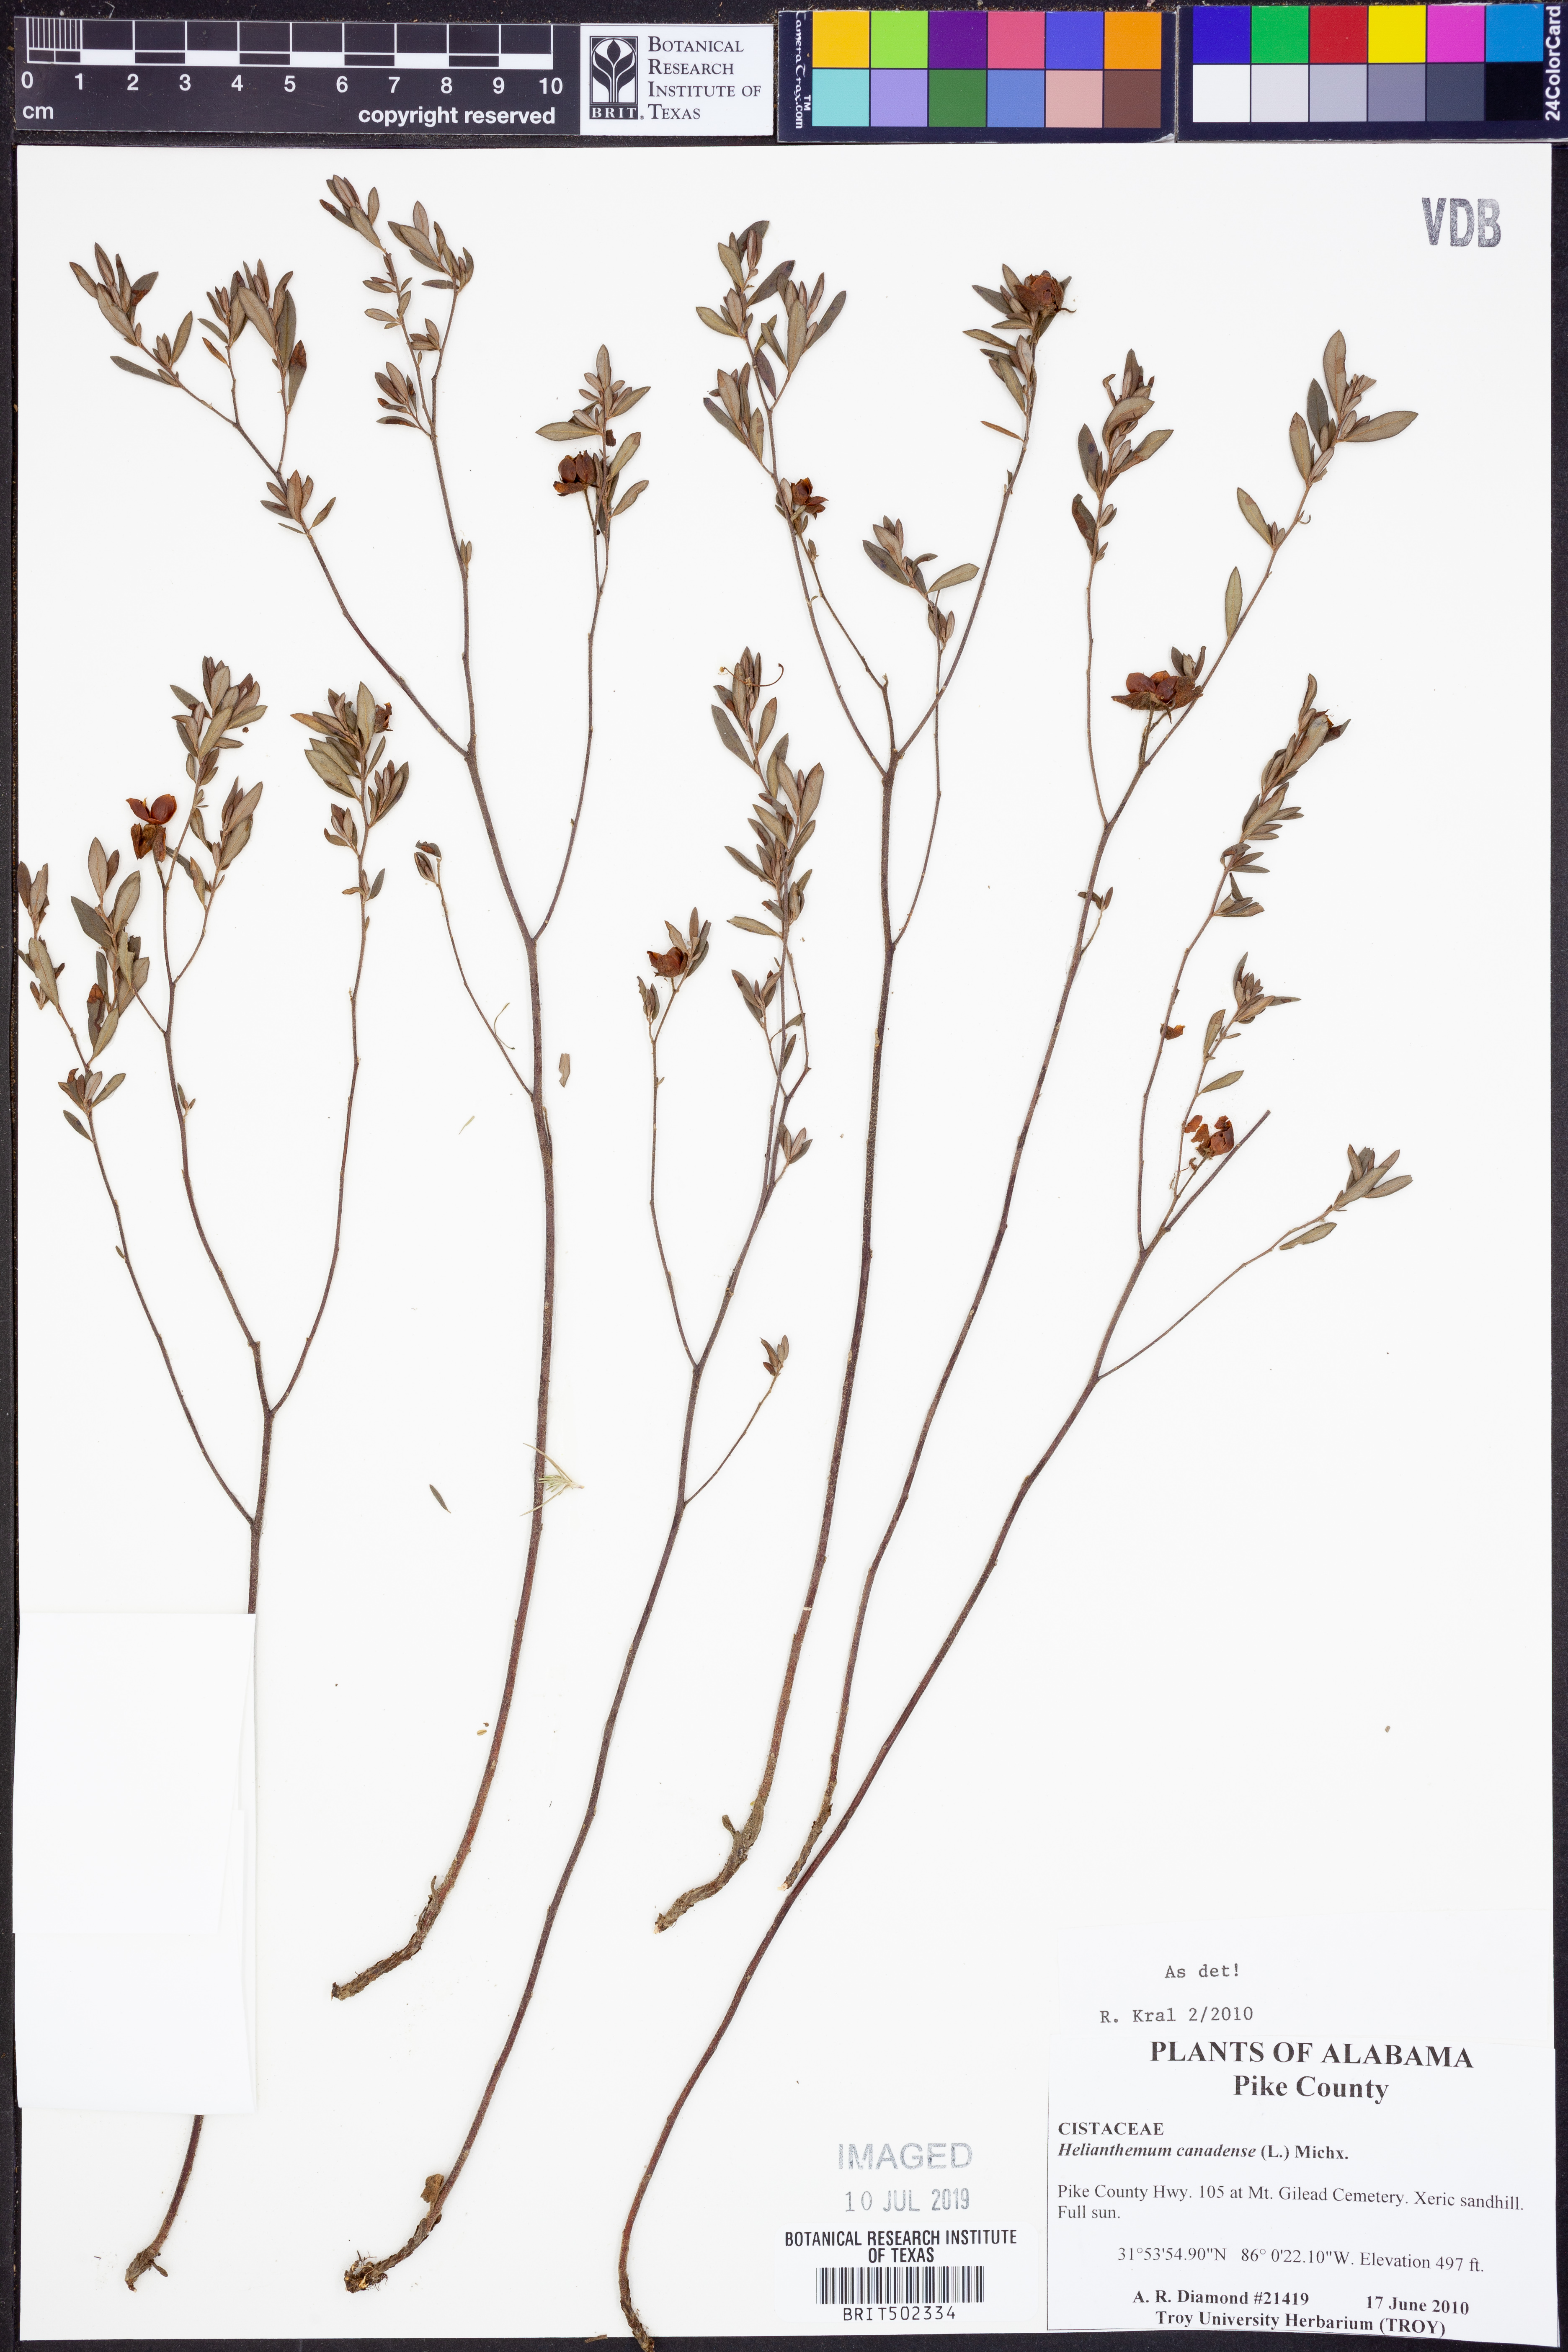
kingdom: Plantae
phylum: Tracheophyta
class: Magnoliopsida
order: Malvales
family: Cistaceae
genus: Crocanthemum
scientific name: Crocanthemum canadense
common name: Canada frostweed
